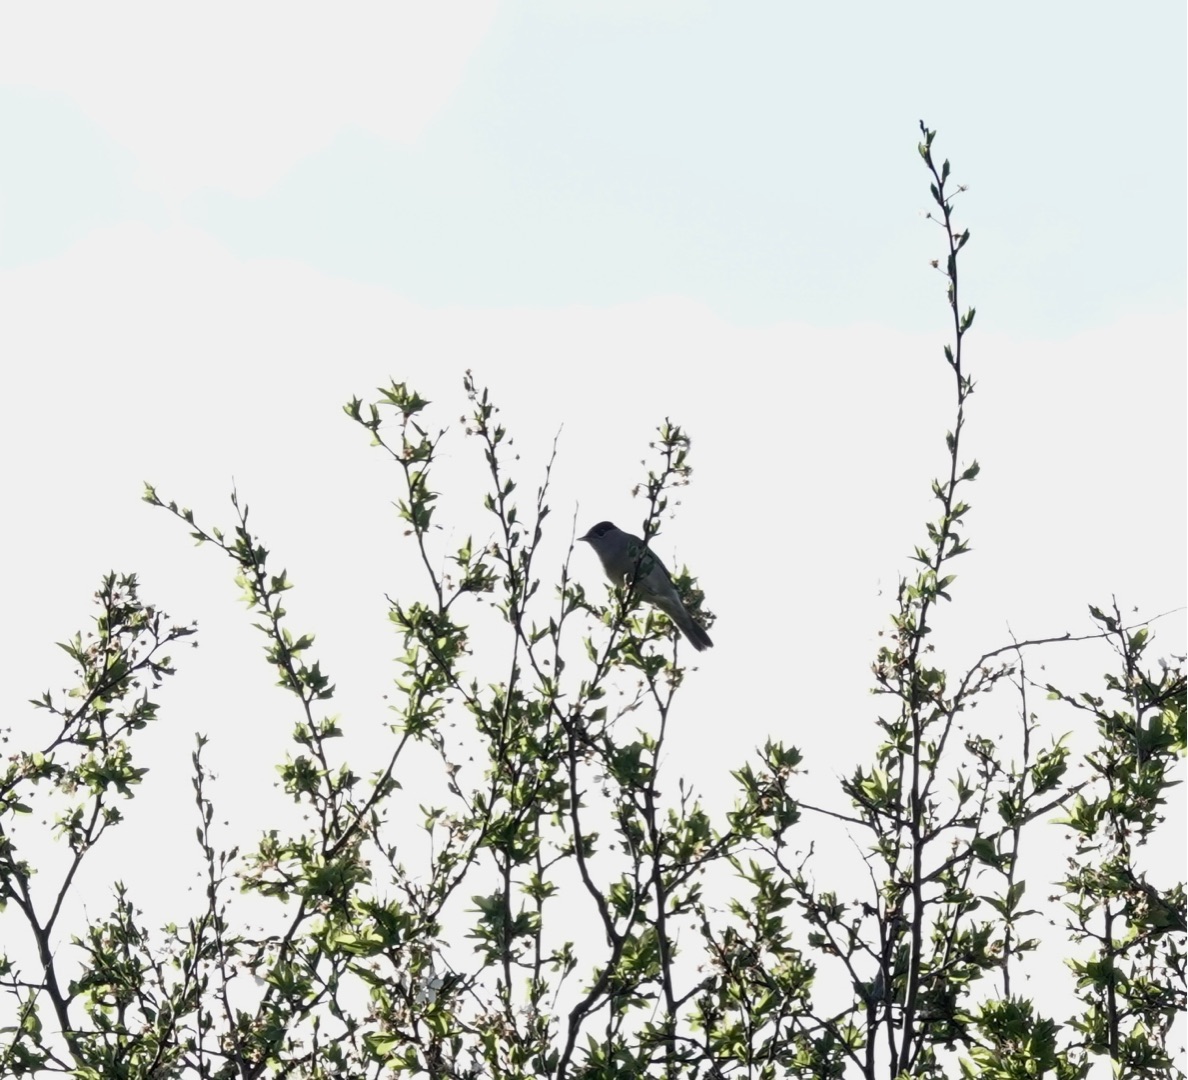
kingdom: Animalia
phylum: Chordata
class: Aves
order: Passeriformes
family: Sylviidae
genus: Sylvia
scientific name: Sylvia atricapilla
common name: Munk
